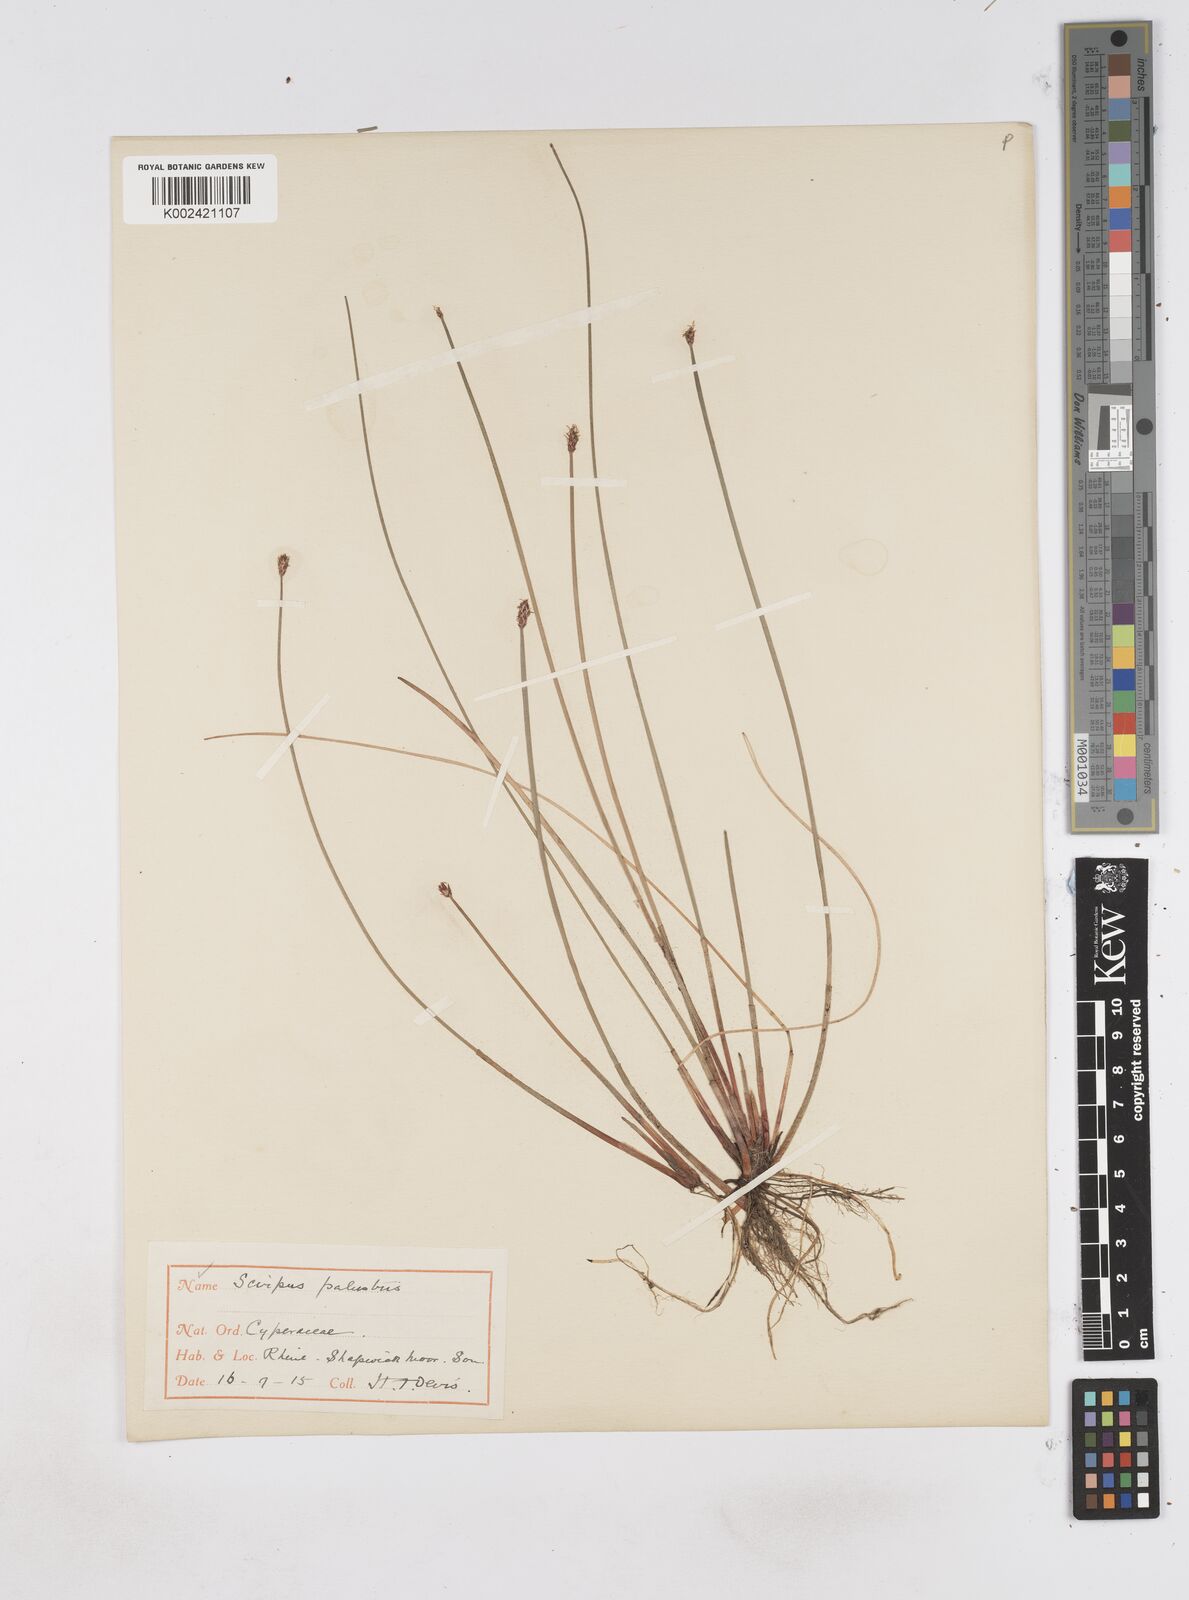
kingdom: Plantae
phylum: Tracheophyta
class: Liliopsida
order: Poales
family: Cyperaceae
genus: Eleocharis
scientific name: Eleocharis palustris
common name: Common spike-rush
